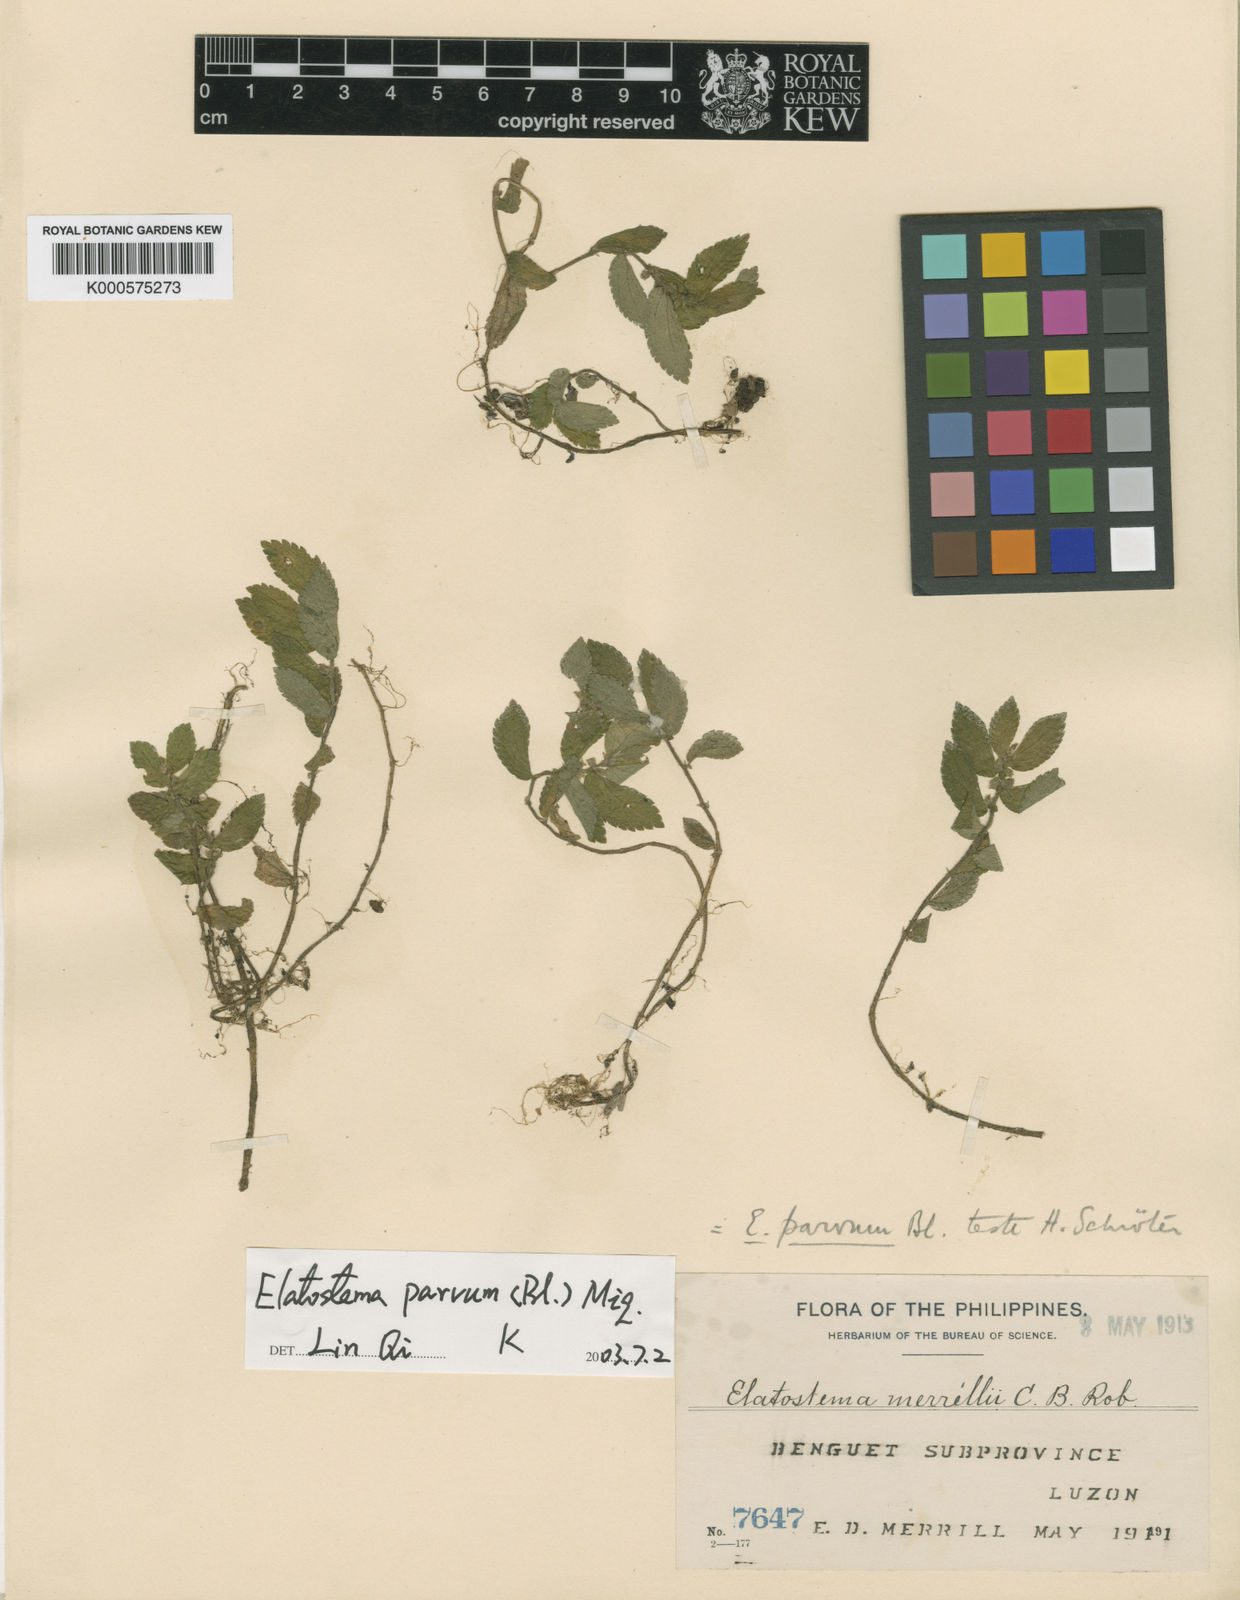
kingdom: Plantae
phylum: Tracheophyta
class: Magnoliopsida
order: Rosales
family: Urticaceae
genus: Elatostema
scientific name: Elatostema parvum
